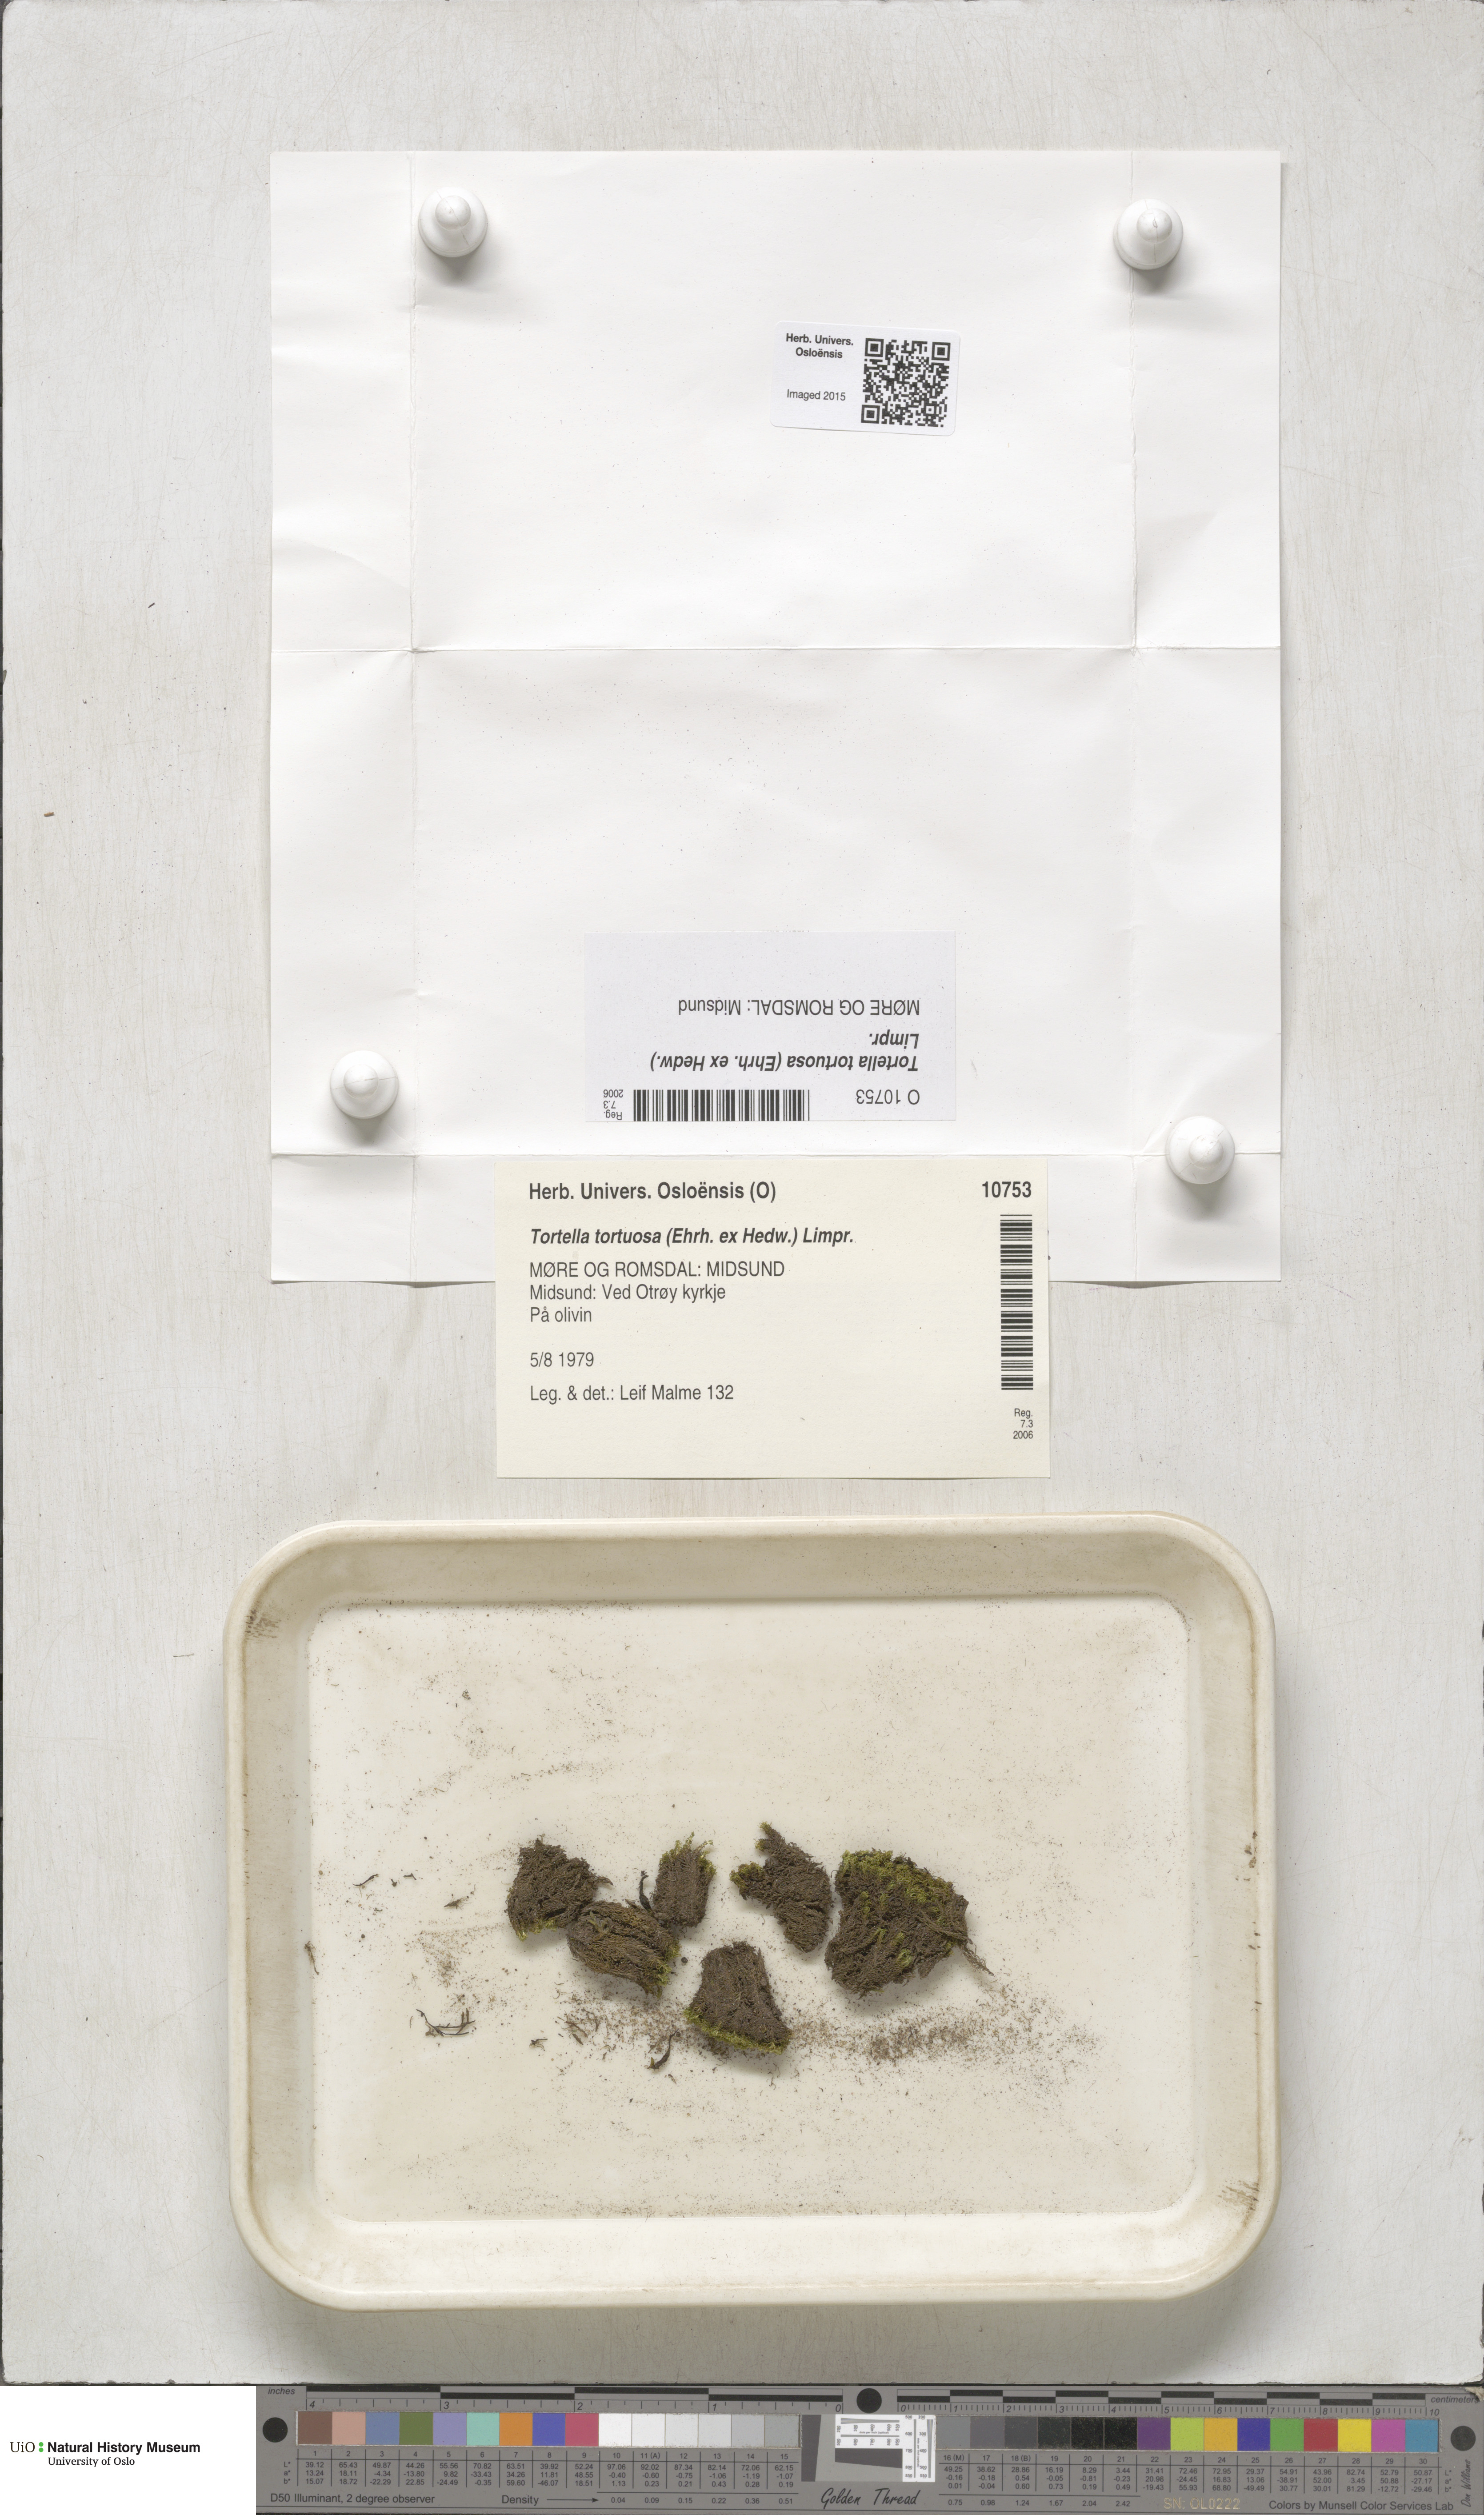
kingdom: Plantae
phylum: Bryophyta
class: Bryopsida
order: Pottiales
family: Pottiaceae
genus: Tortella
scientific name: Tortella tortuosa
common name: Frizzled crisp moss
